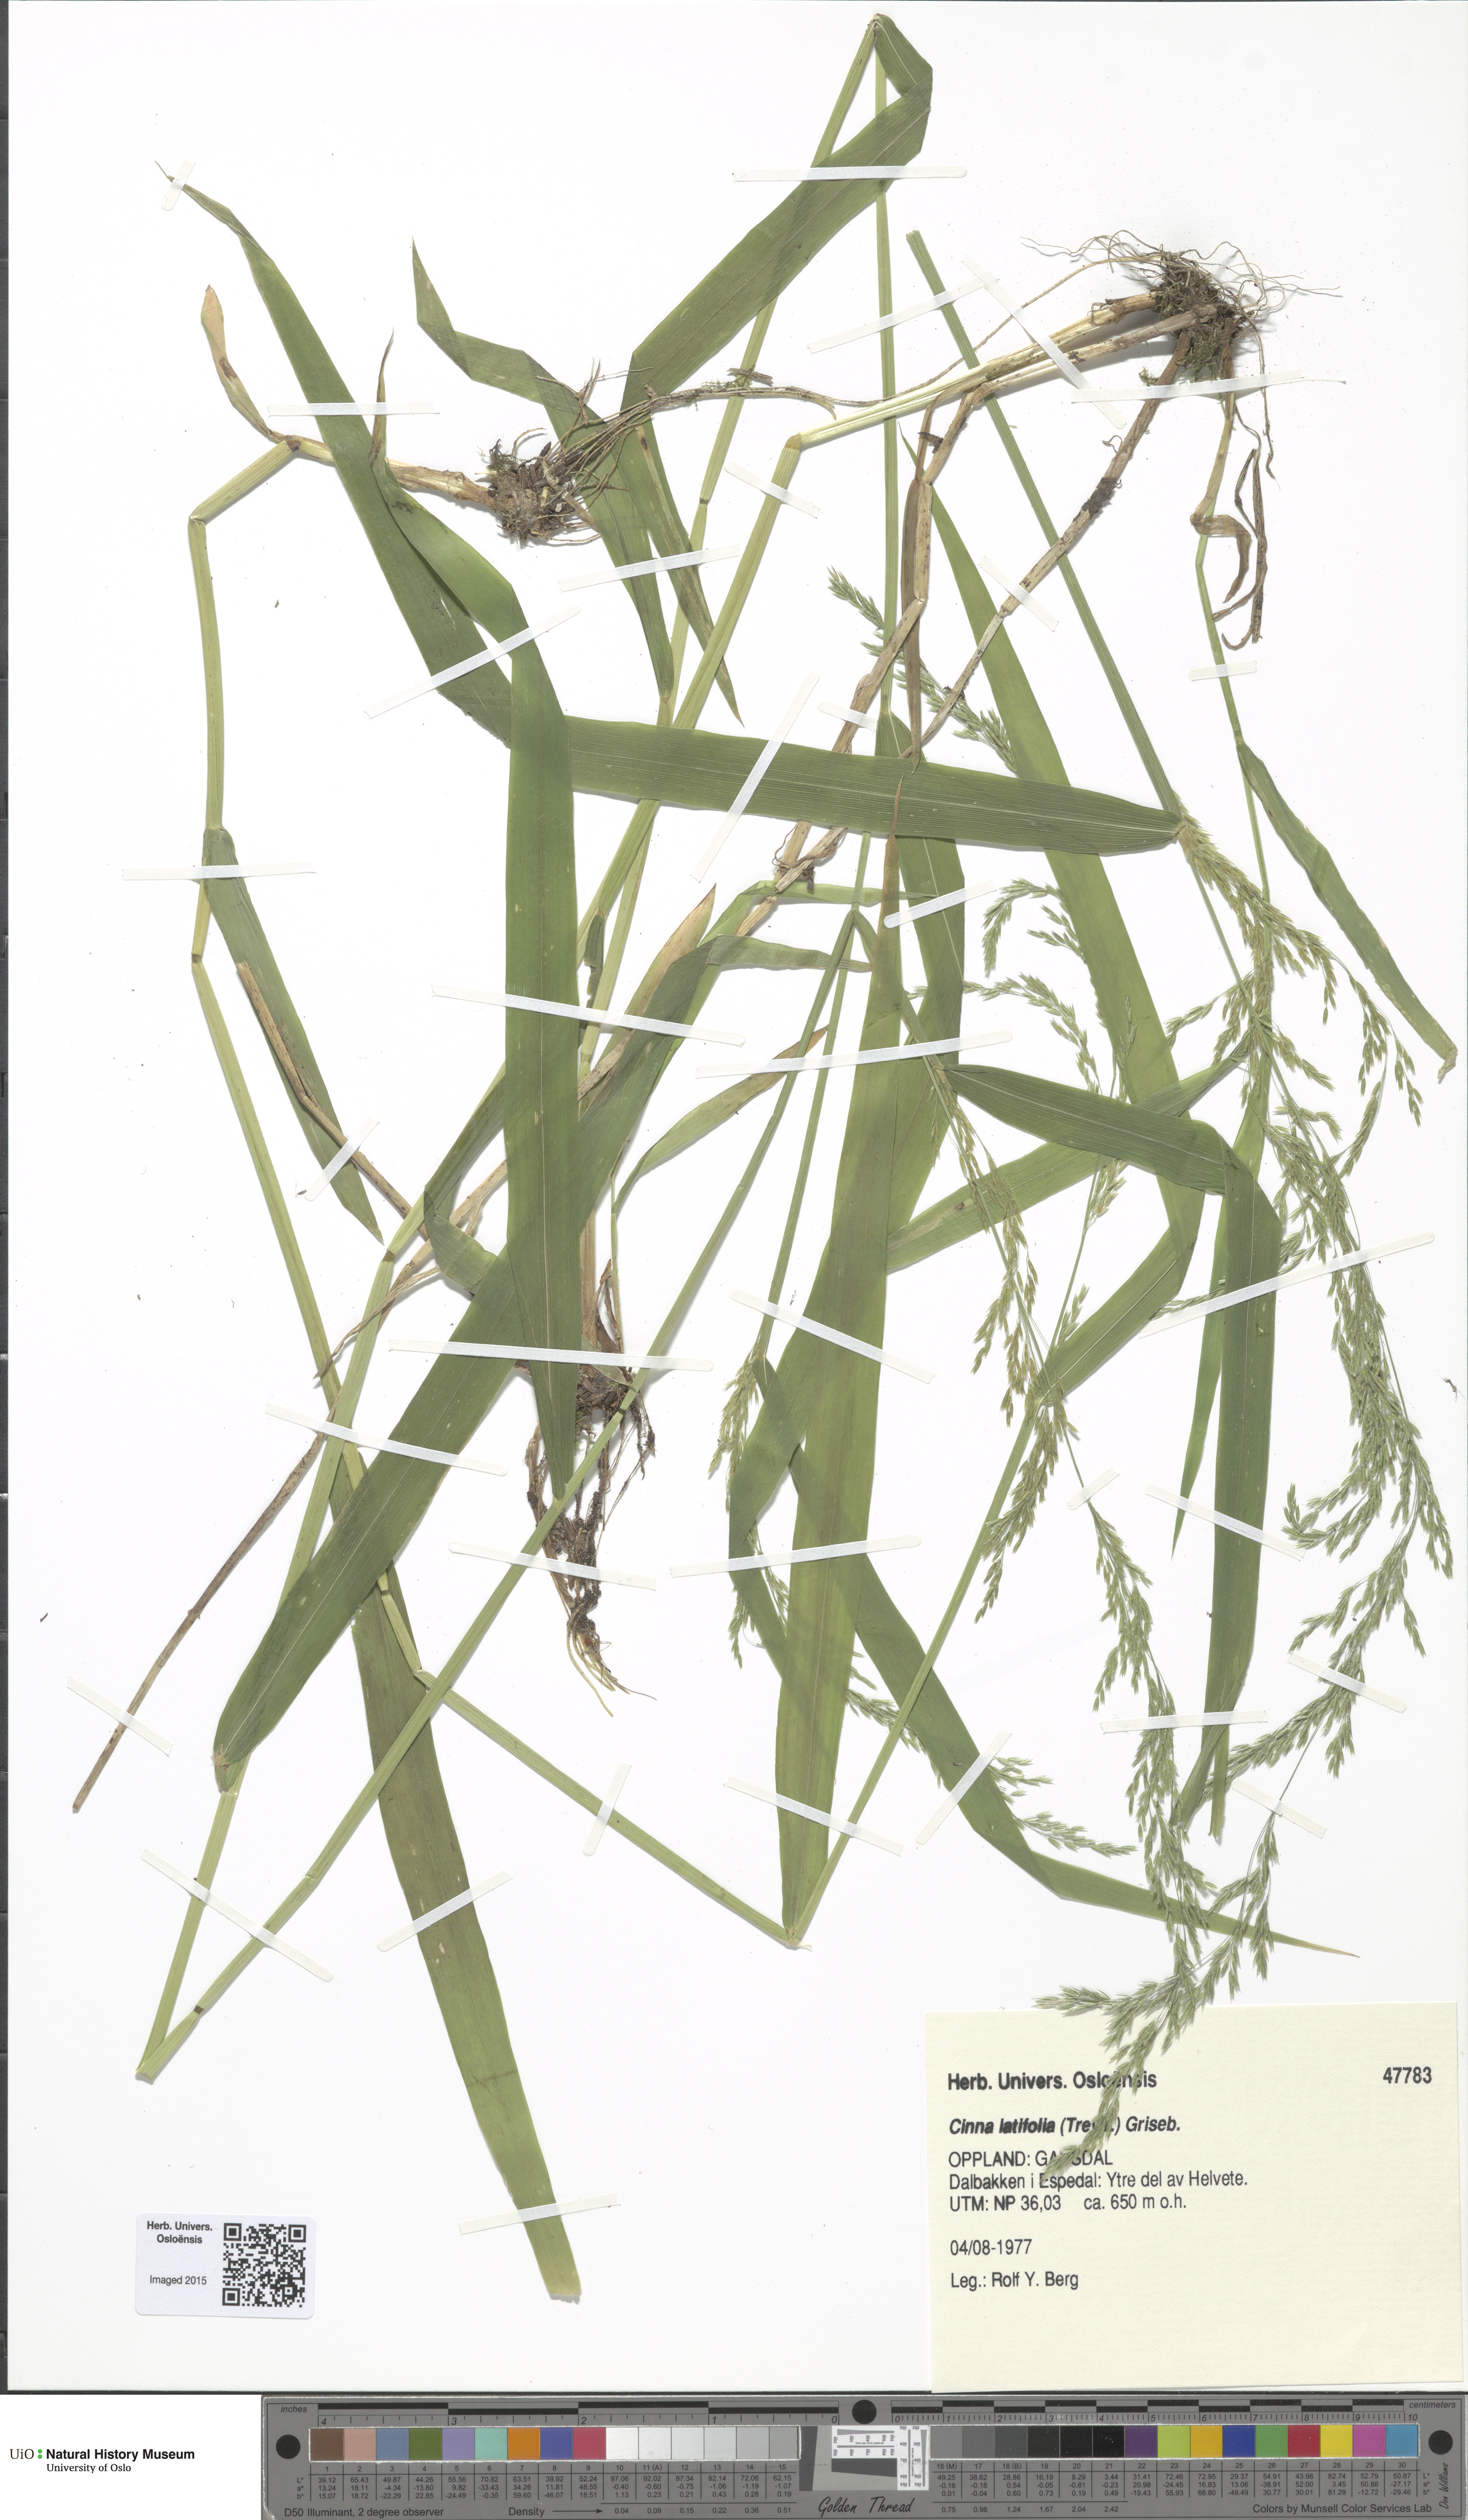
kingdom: Plantae
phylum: Tracheophyta
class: Liliopsida
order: Poales
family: Poaceae
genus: Cinna
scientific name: Cinna latifolia
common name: Drooping woodreed
